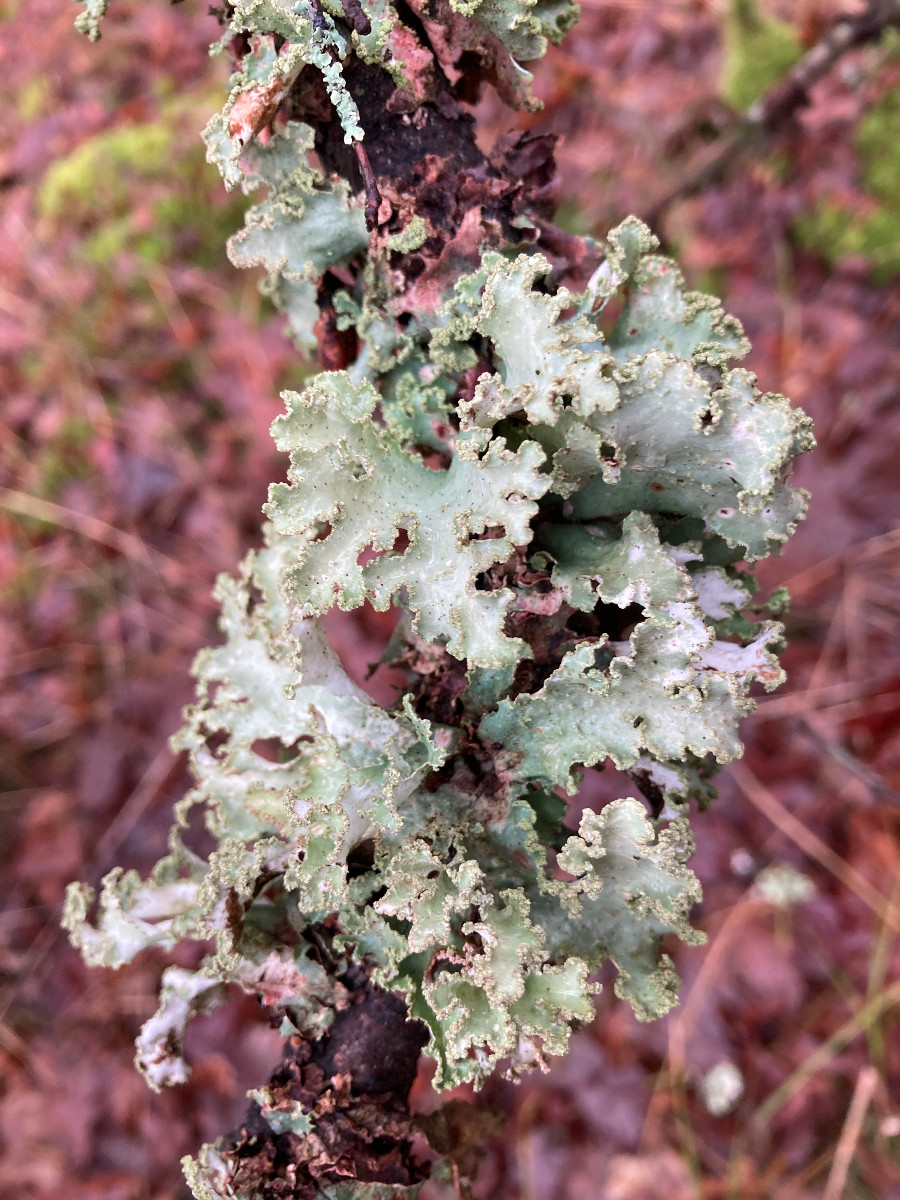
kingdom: Fungi
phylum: Ascomycota
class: Lecanoromycetes
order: Lecanorales
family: Parmeliaceae
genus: Platismatia
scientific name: Platismatia glauca
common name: blågrå papirlav
